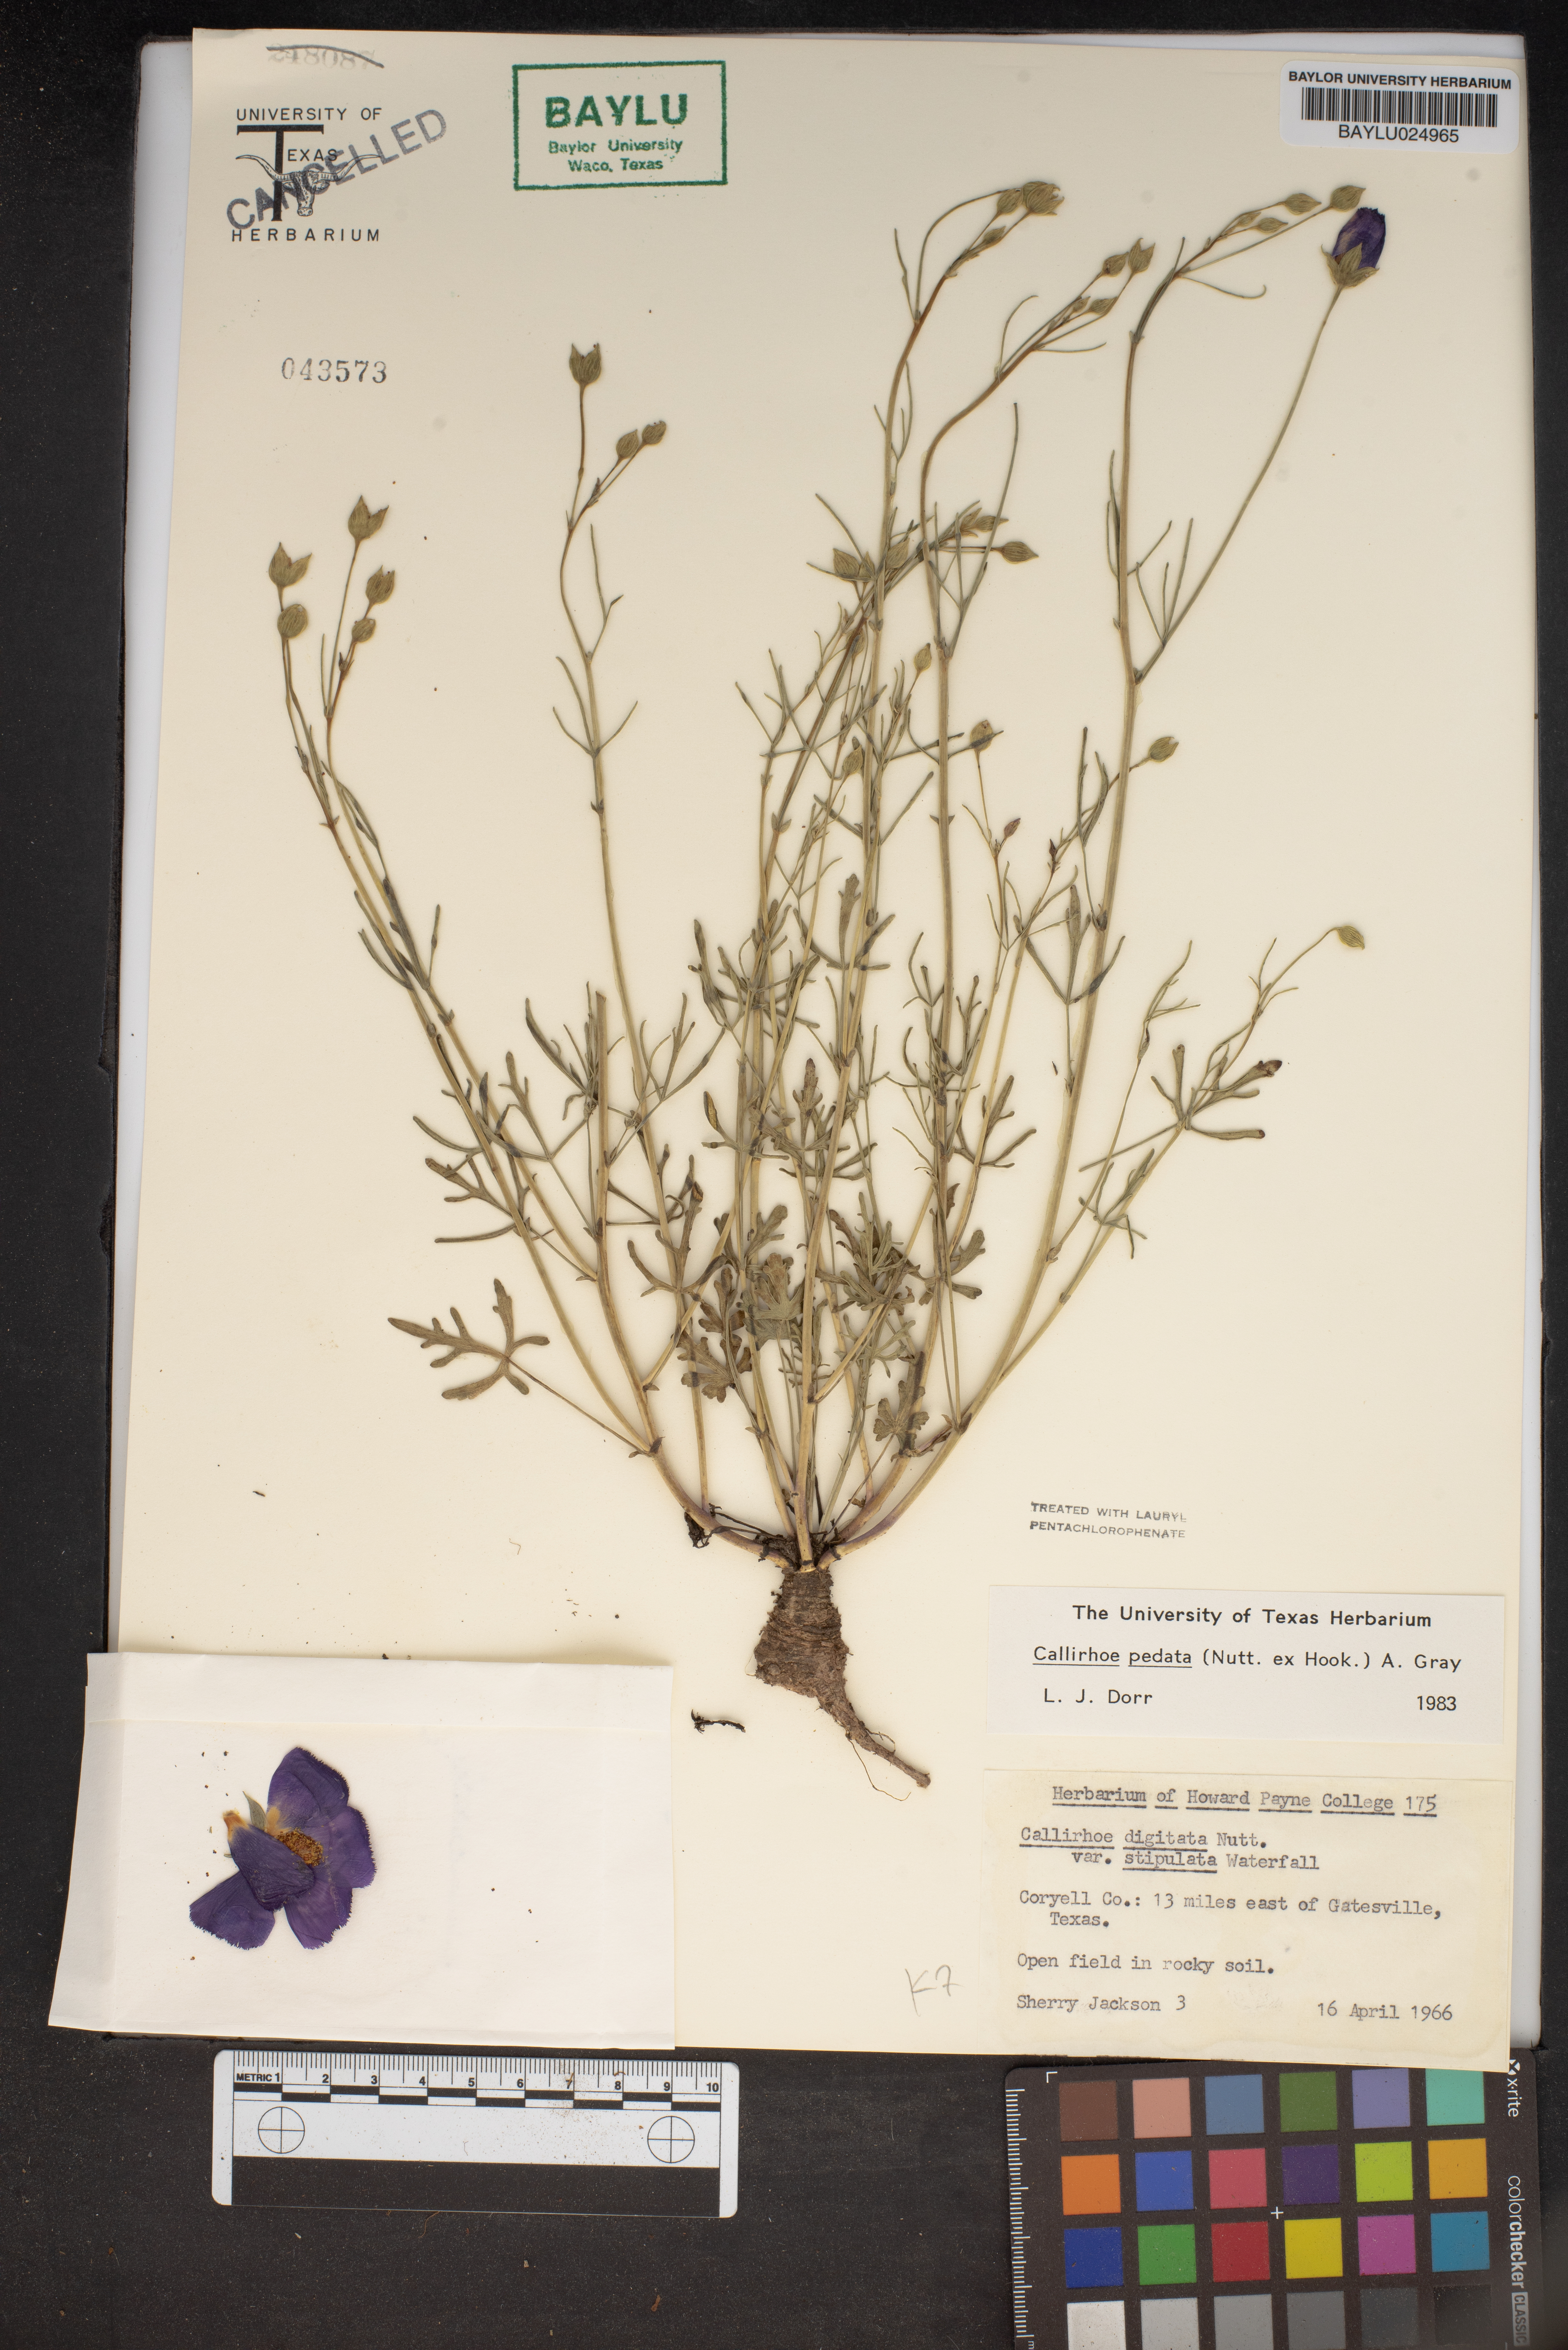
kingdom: Plantae
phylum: Tracheophyta
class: Magnoliopsida
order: Malvales
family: Malvaceae
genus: Callirhoe
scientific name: Callirhoe pedata
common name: Finger poppy-mallow
